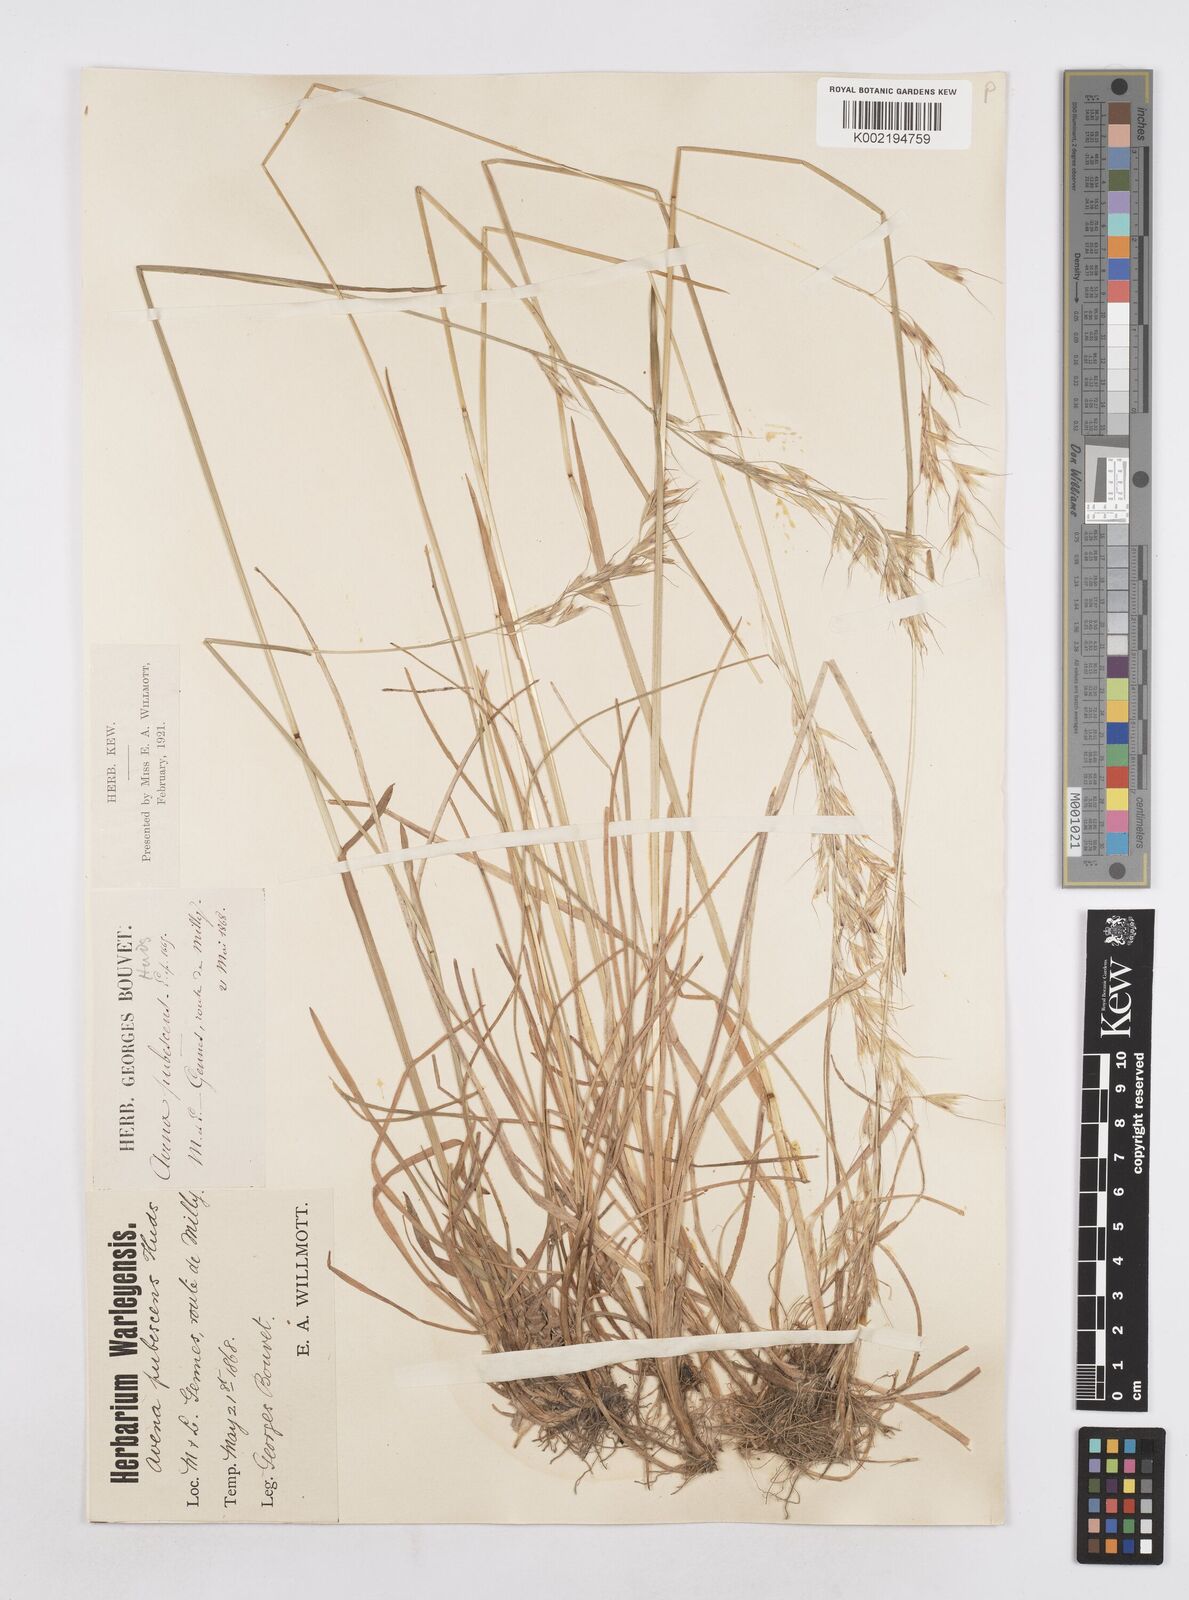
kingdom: Plantae
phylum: Tracheophyta
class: Liliopsida
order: Poales
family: Poaceae
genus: Avenula
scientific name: Avenula pubescens
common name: Downy alpine oatgrass
